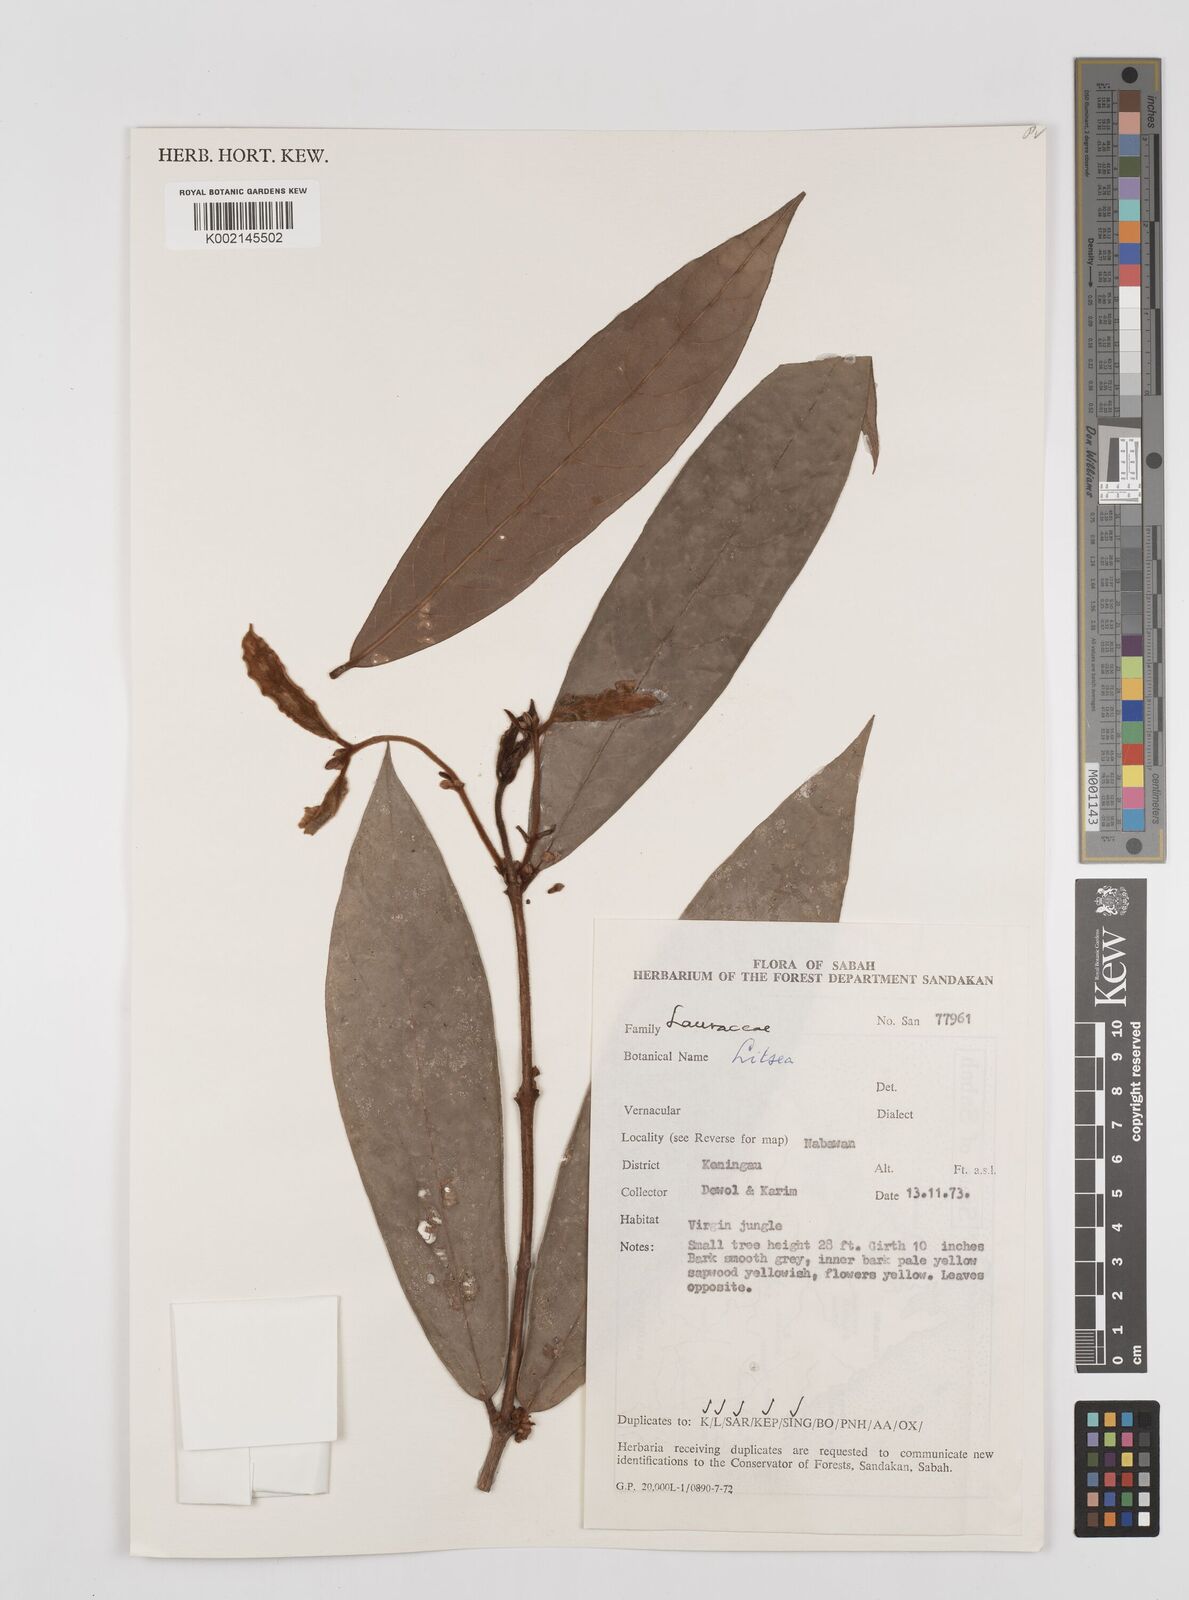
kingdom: Plantae
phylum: Tracheophyta
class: Magnoliopsida
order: Laurales
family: Lauraceae
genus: Litsea
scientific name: Litsea
